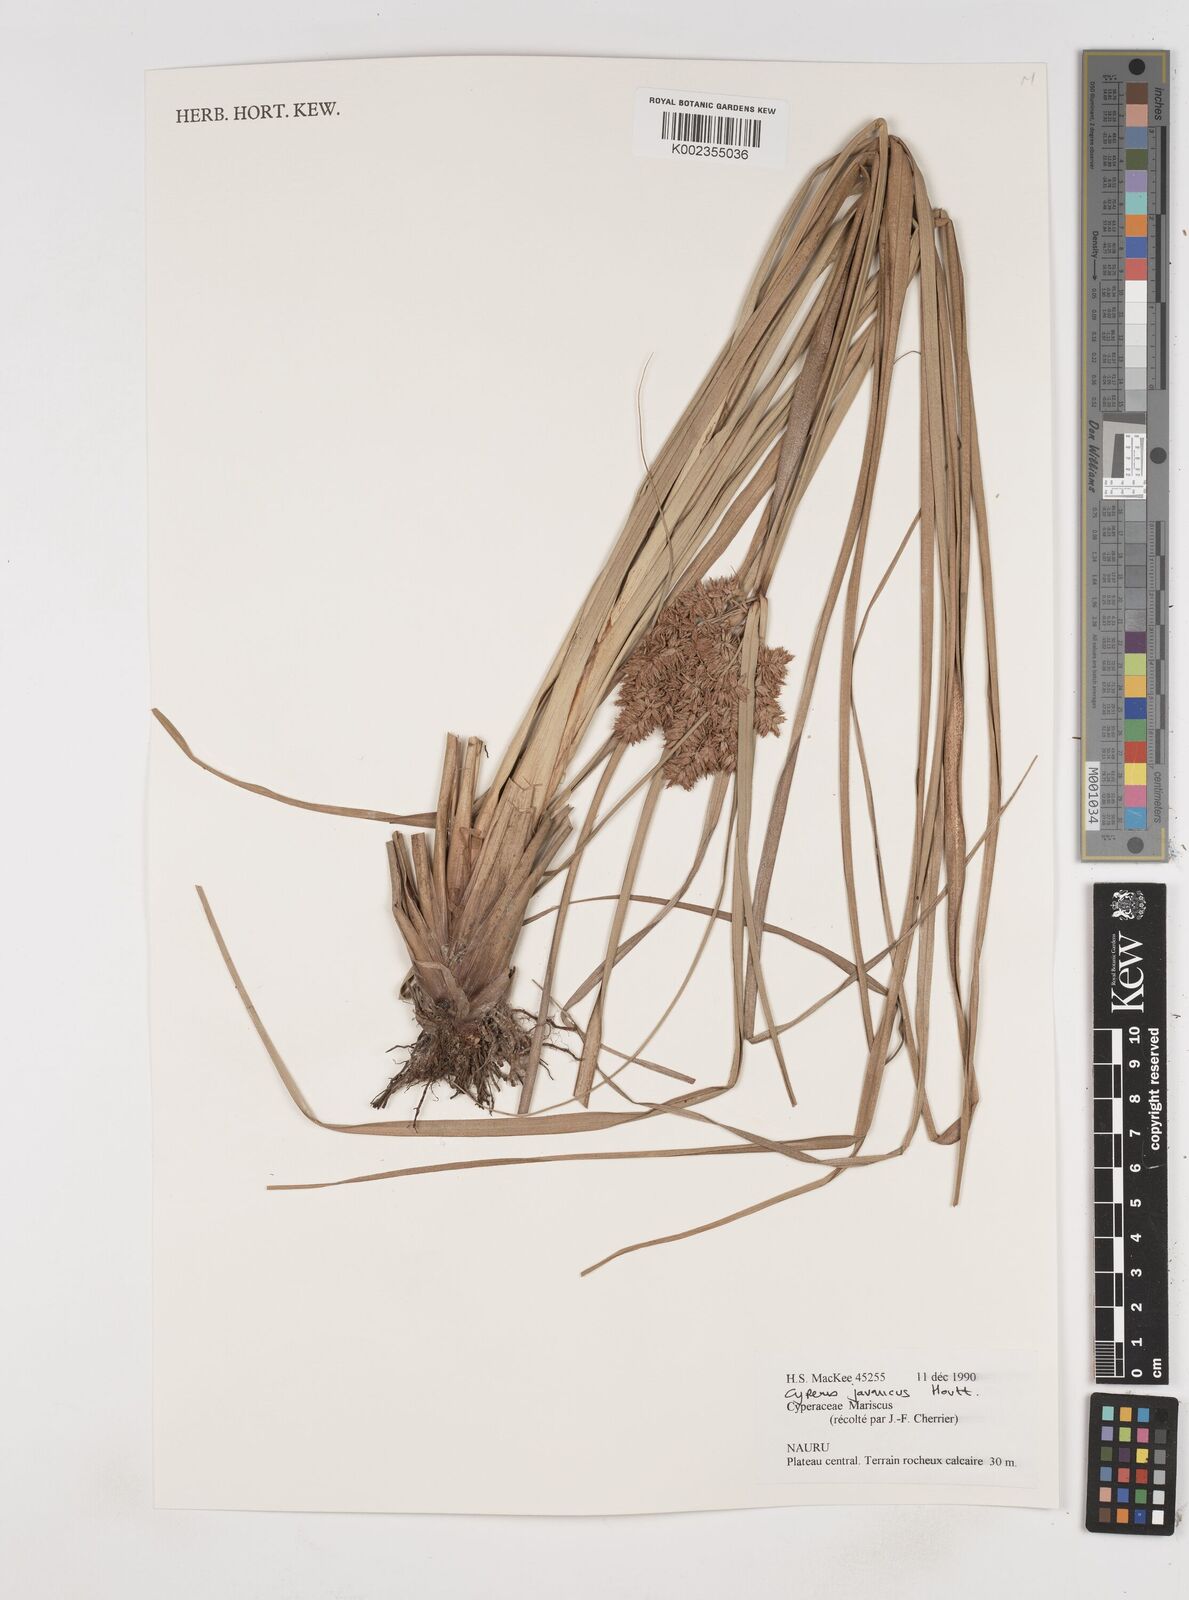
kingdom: Plantae
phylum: Tracheophyta
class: Liliopsida
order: Poales
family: Cyperaceae
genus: Cyperus
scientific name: Cyperus javanicus
